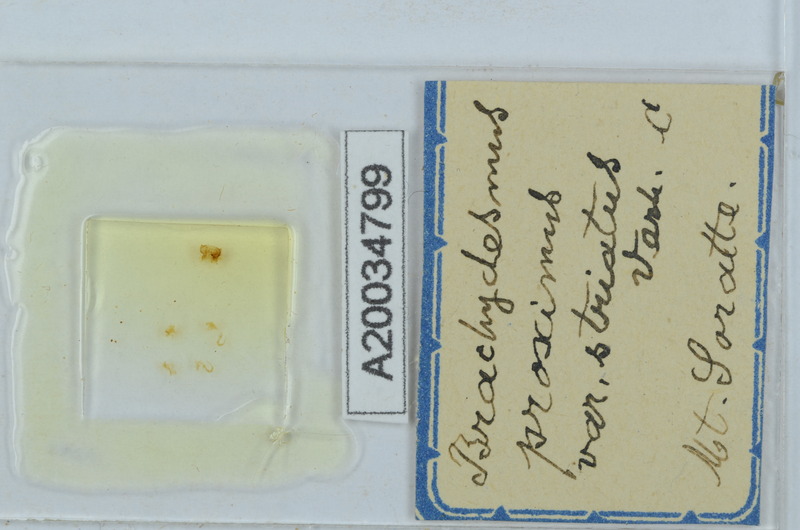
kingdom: Animalia
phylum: Arthropoda
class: Diplopoda
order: Polydesmida
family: Polydesmidae
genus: Brachydesmus
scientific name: Brachydesmus proximus
